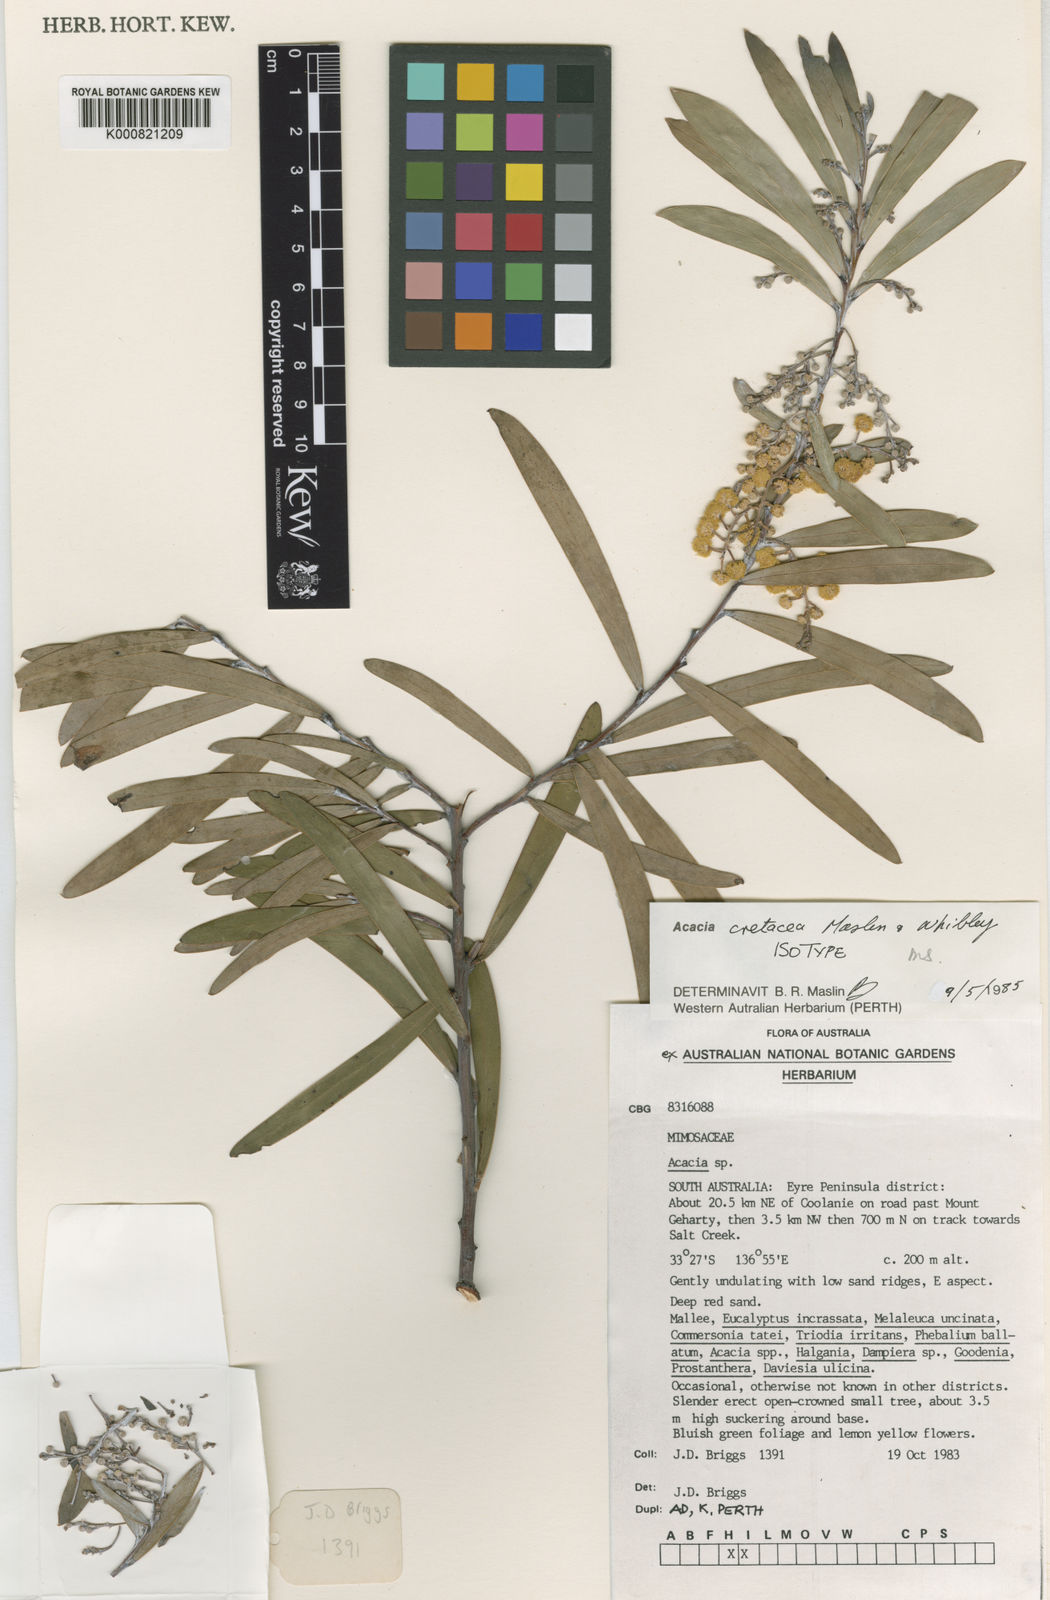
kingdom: Plantae
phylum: Tracheophyta
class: Magnoliopsida
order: Fabales
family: Fabaceae
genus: Acacia
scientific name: Acacia cretacea
